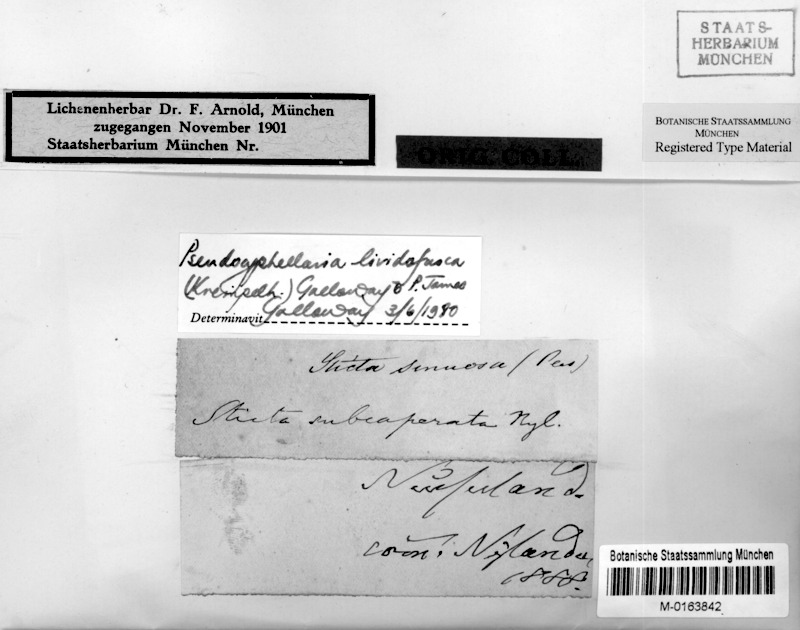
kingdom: Fungi
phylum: Ascomycota
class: Lecanoromycetes
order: Peltigerales
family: Lobariaceae
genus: Pseudocyphellaria
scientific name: Pseudocyphellaria lividofusca
